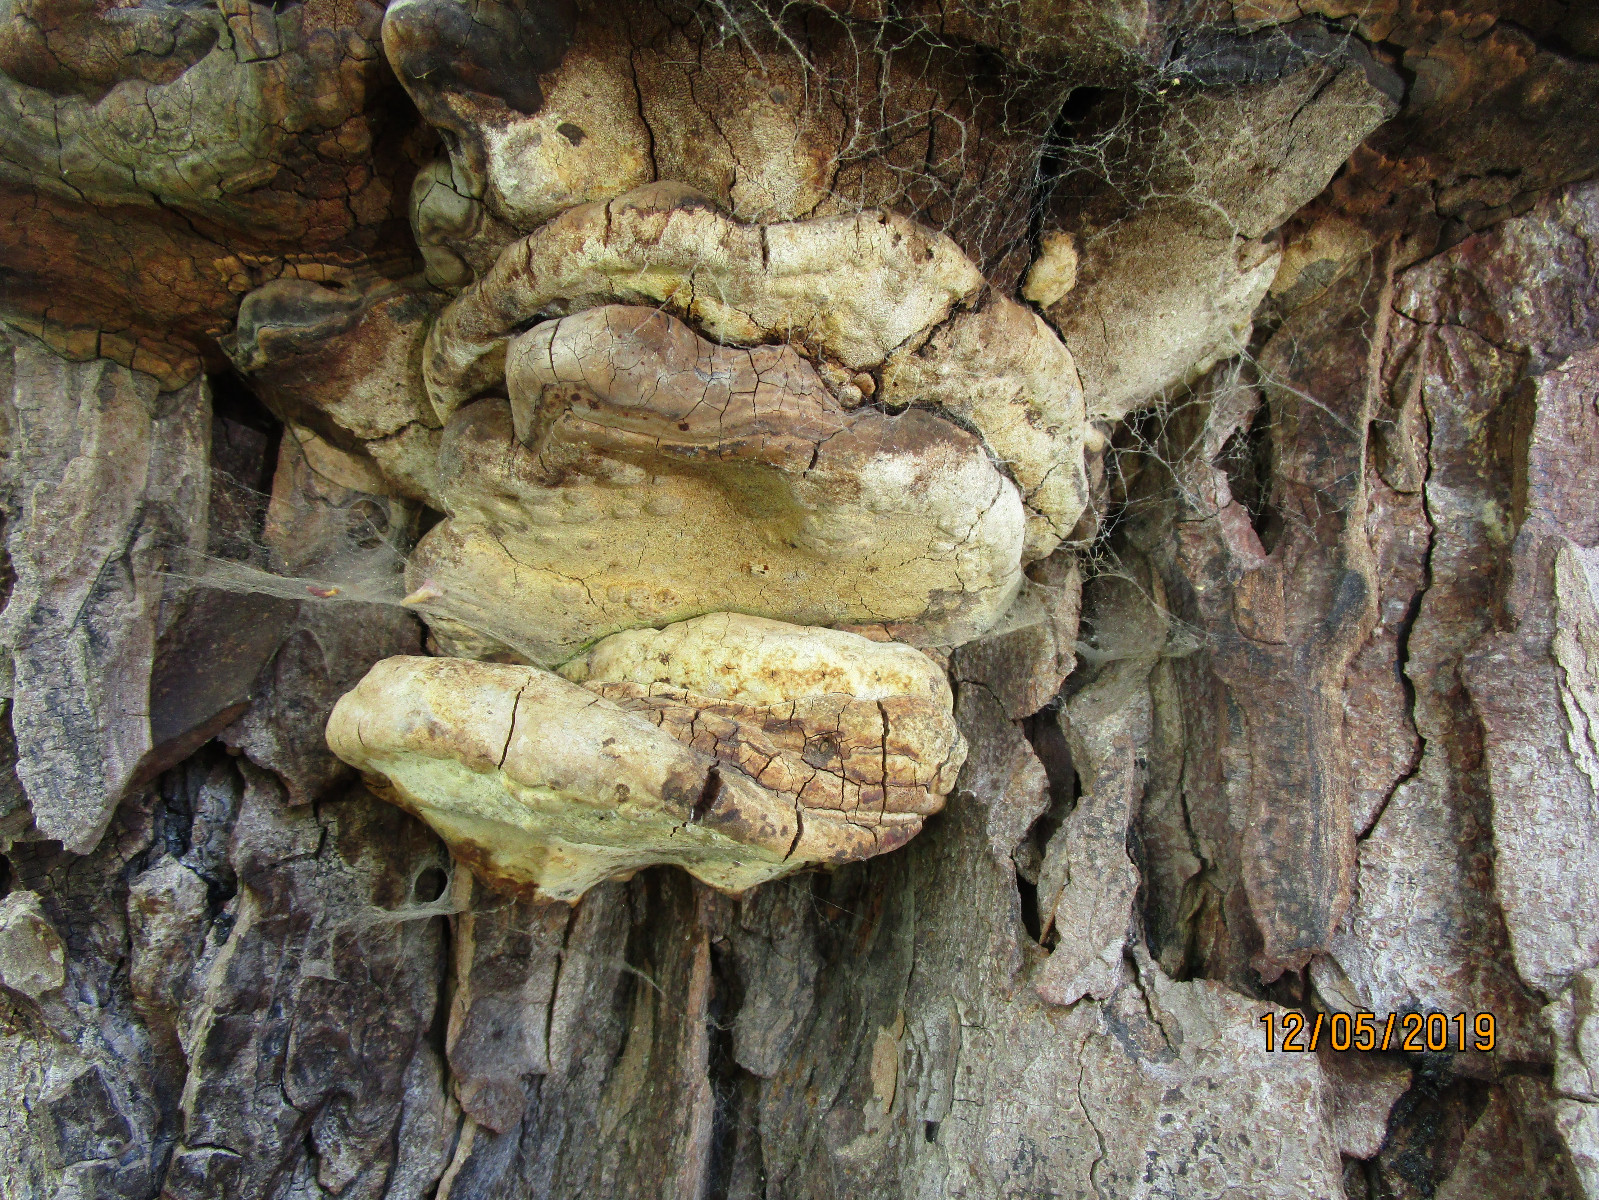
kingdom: Fungi
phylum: Basidiomycota
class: Agaricomycetes
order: Polyporales
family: Polyporaceae
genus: Ganoderma
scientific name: Ganoderma adspersum
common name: grov lakporesvamp
